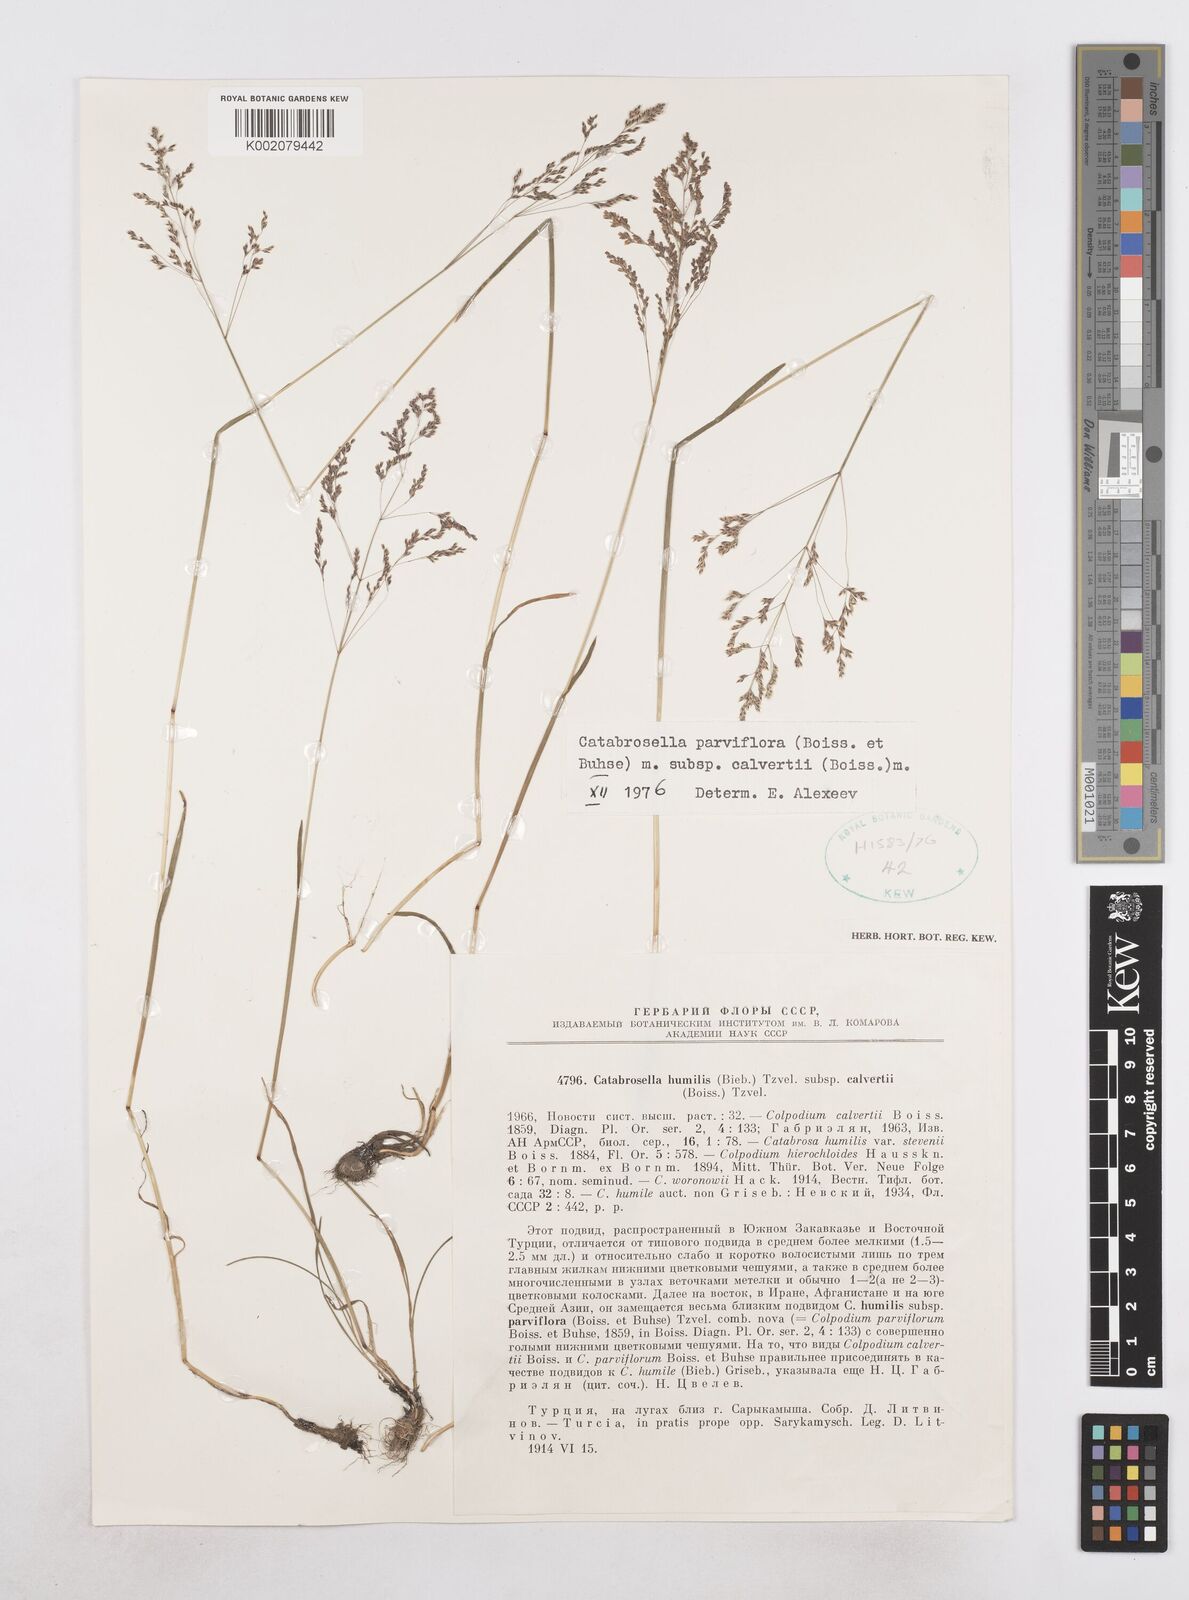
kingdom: Plantae
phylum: Tracheophyta
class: Liliopsida
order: Poales
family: Poaceae
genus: Catabrosella
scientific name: Catabrosella humilis
